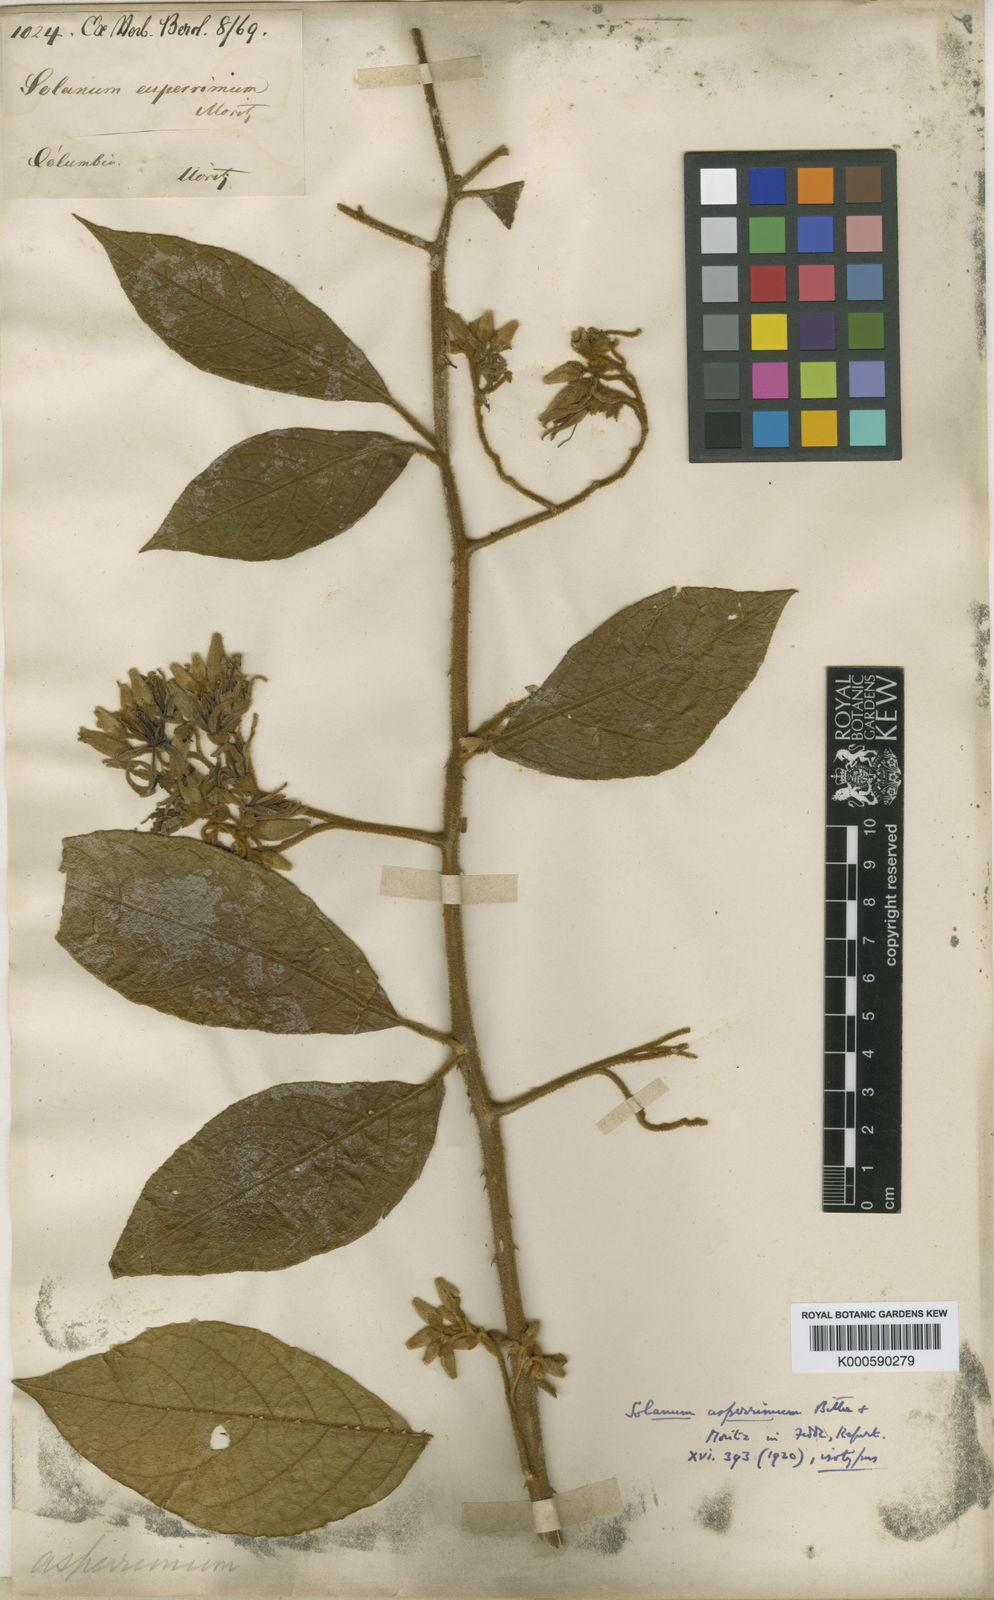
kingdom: Plantae
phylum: Tracheophyta
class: Magnoliopsida
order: Solanales
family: Solanaceae
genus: Solanum
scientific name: Solanum aturense
